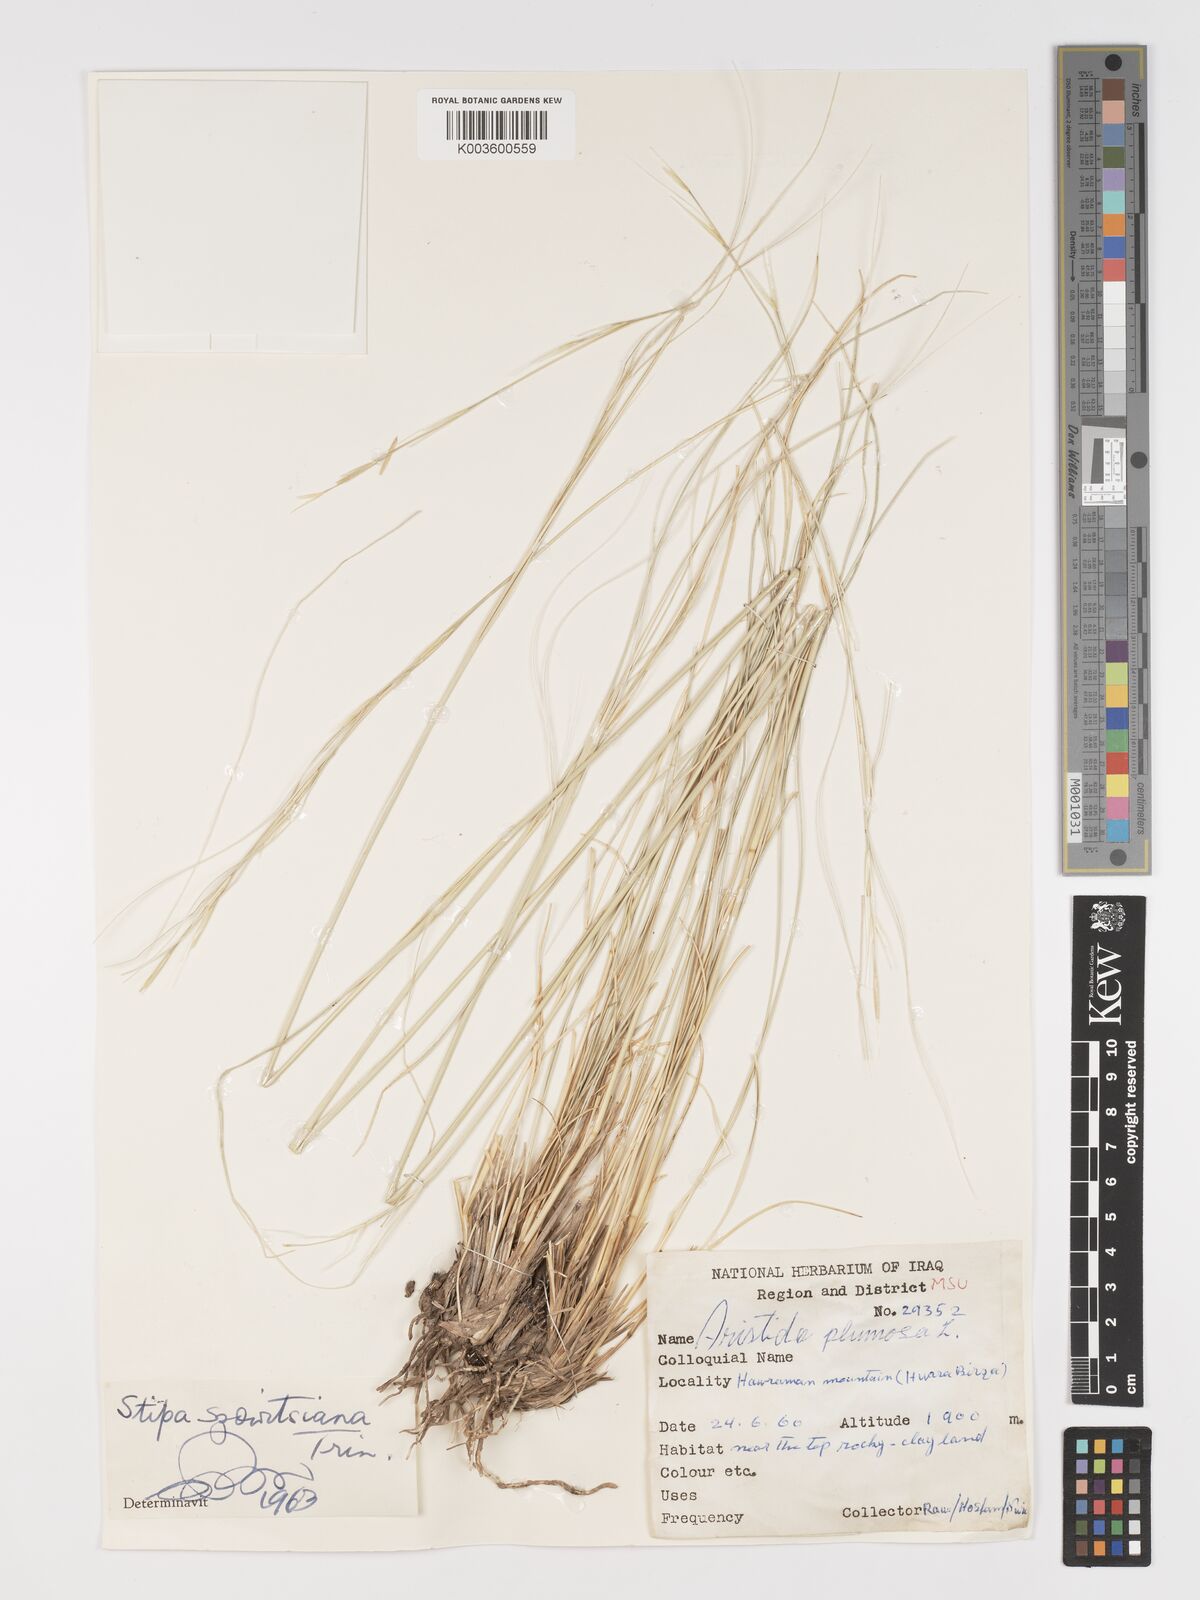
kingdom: Plantae
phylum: Tracheophyta
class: Liliopsida
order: Poales
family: Poaceae
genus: Stipa
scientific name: Stipa barbata
